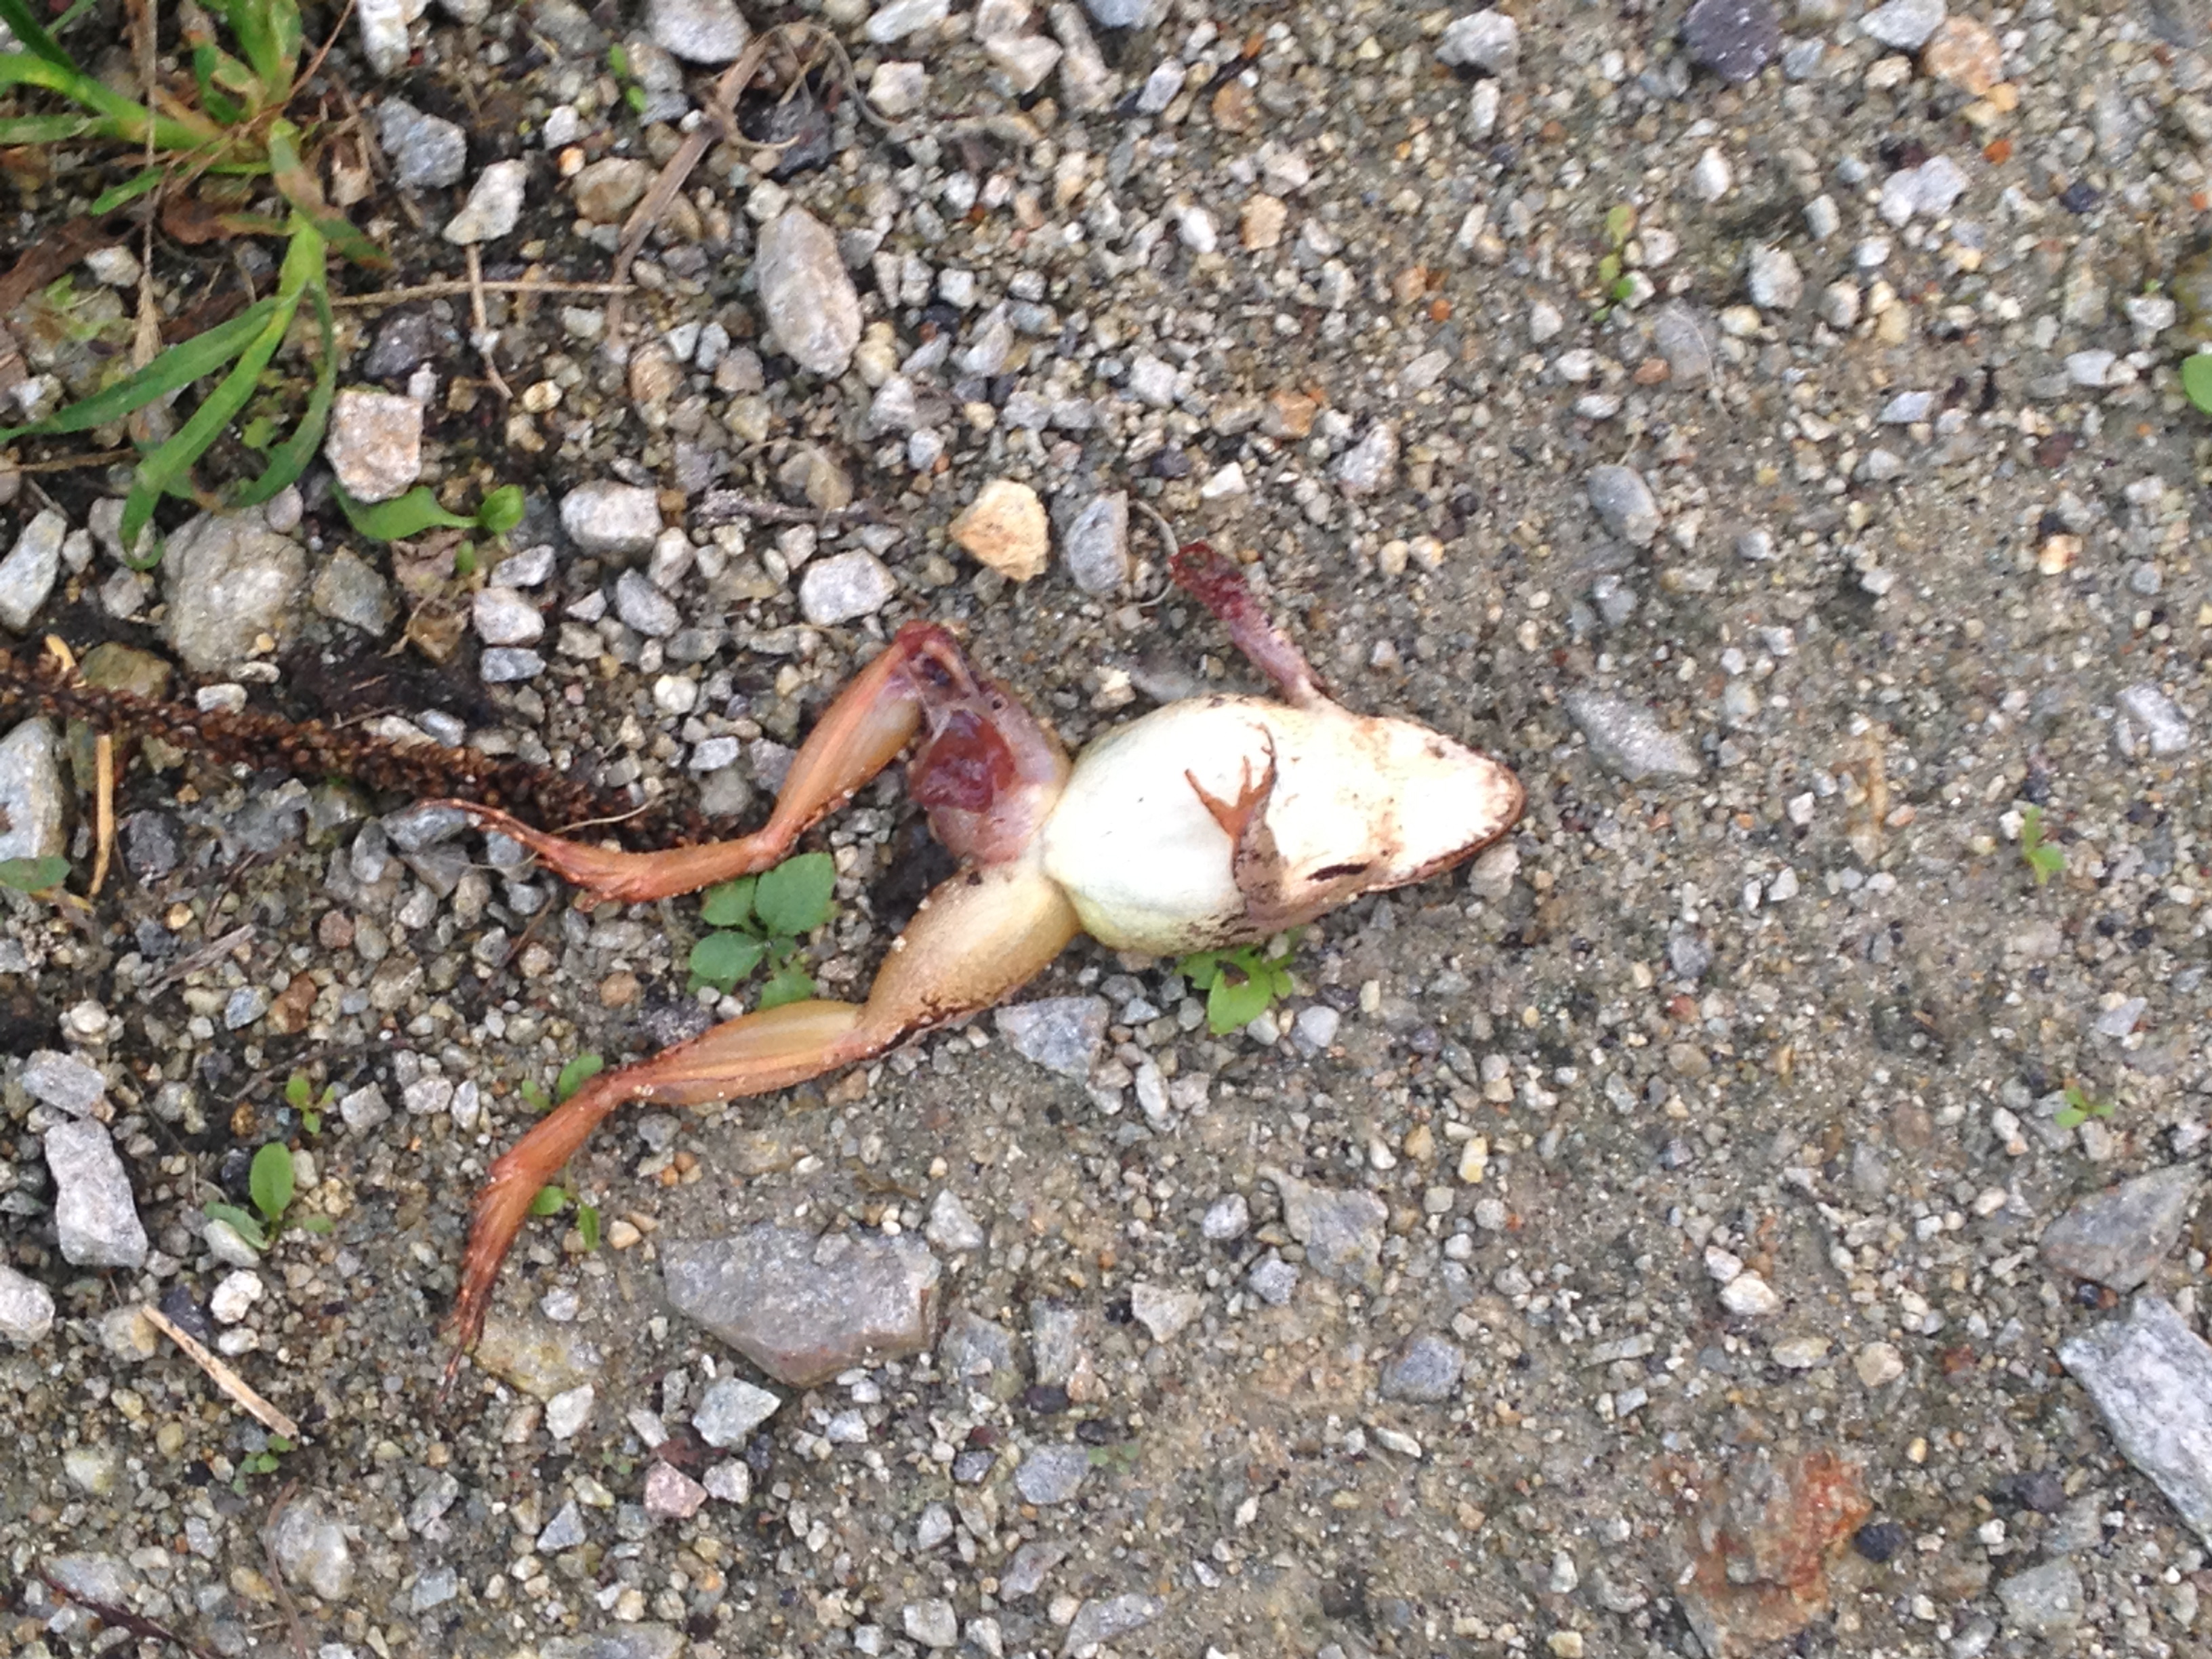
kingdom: Animalia
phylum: Chordata
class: Amphibia
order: Anura
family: Ranidae
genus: Rana
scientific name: Rana dalmatina
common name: Agile frog
